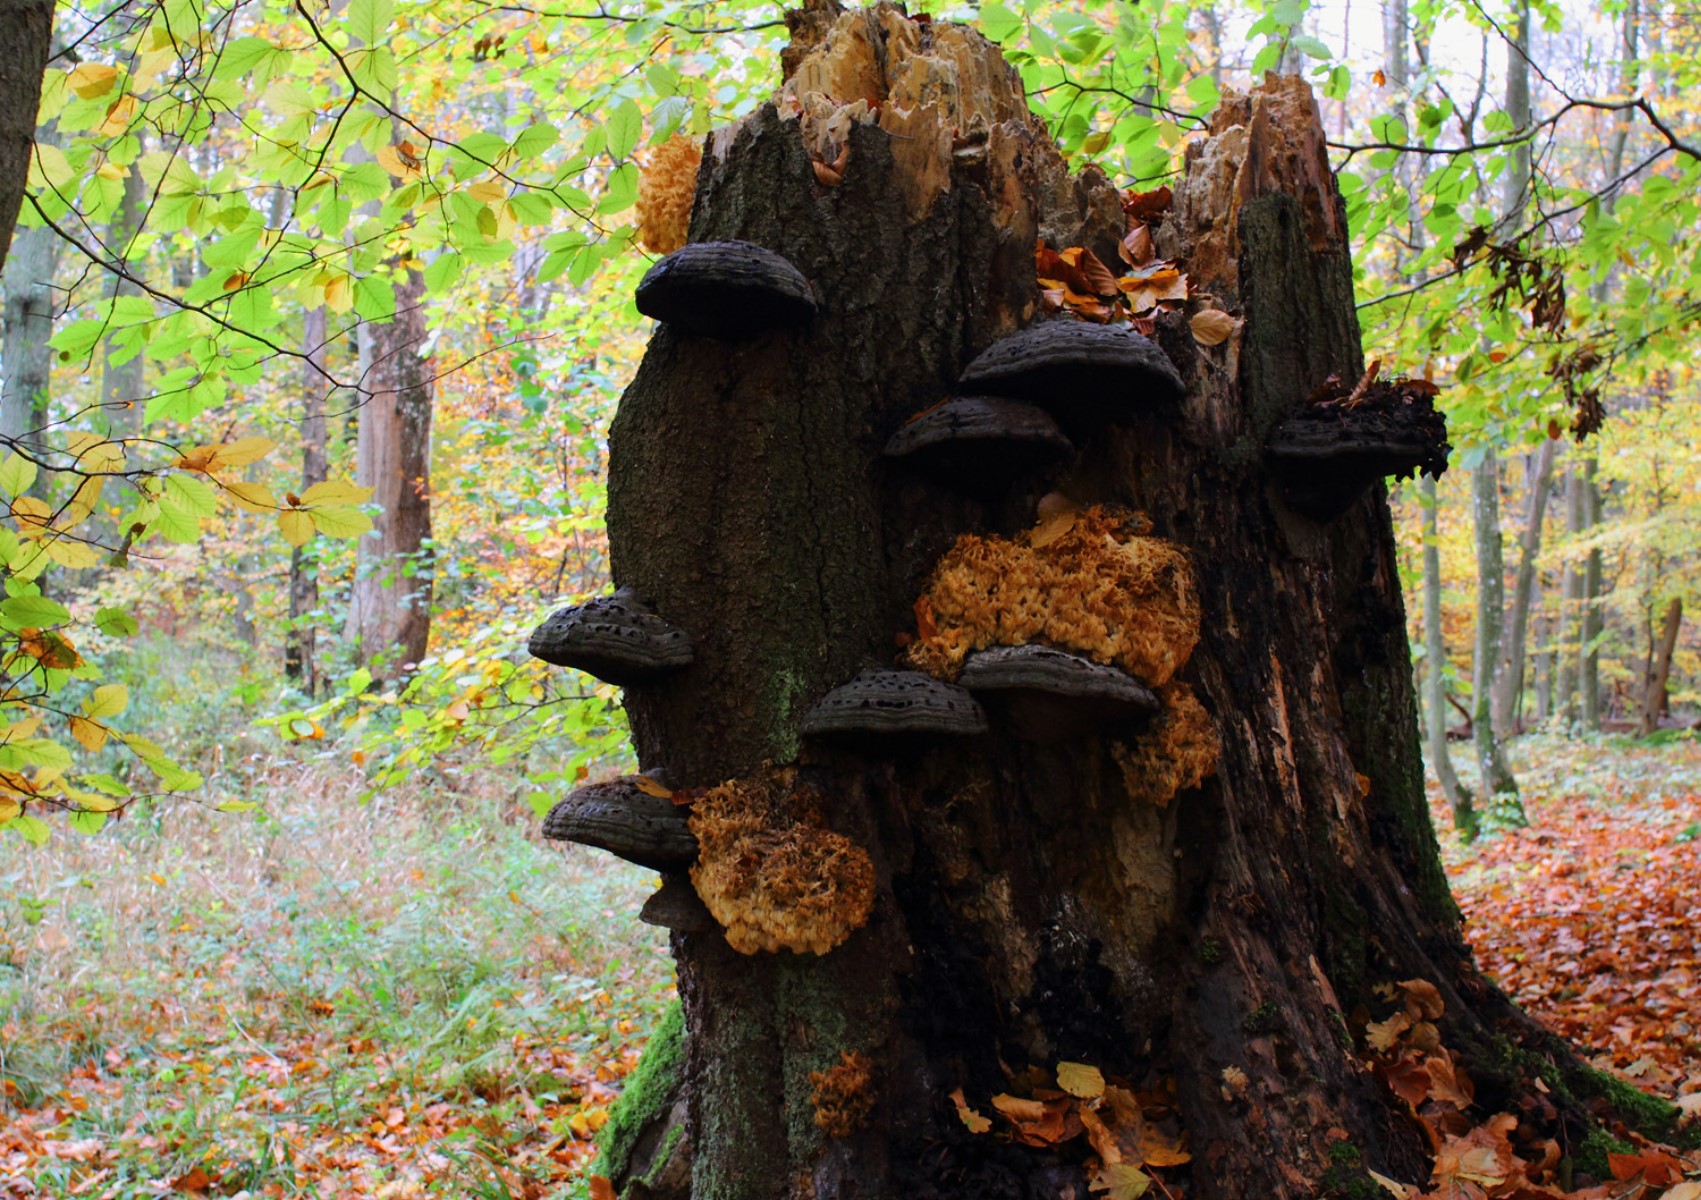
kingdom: Fungi
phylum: Basidiomycota
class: Agaricomycetes
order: Russulales
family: Hericiaceae
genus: Hericium
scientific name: Hericium coralloides
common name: koralpigsvamp
